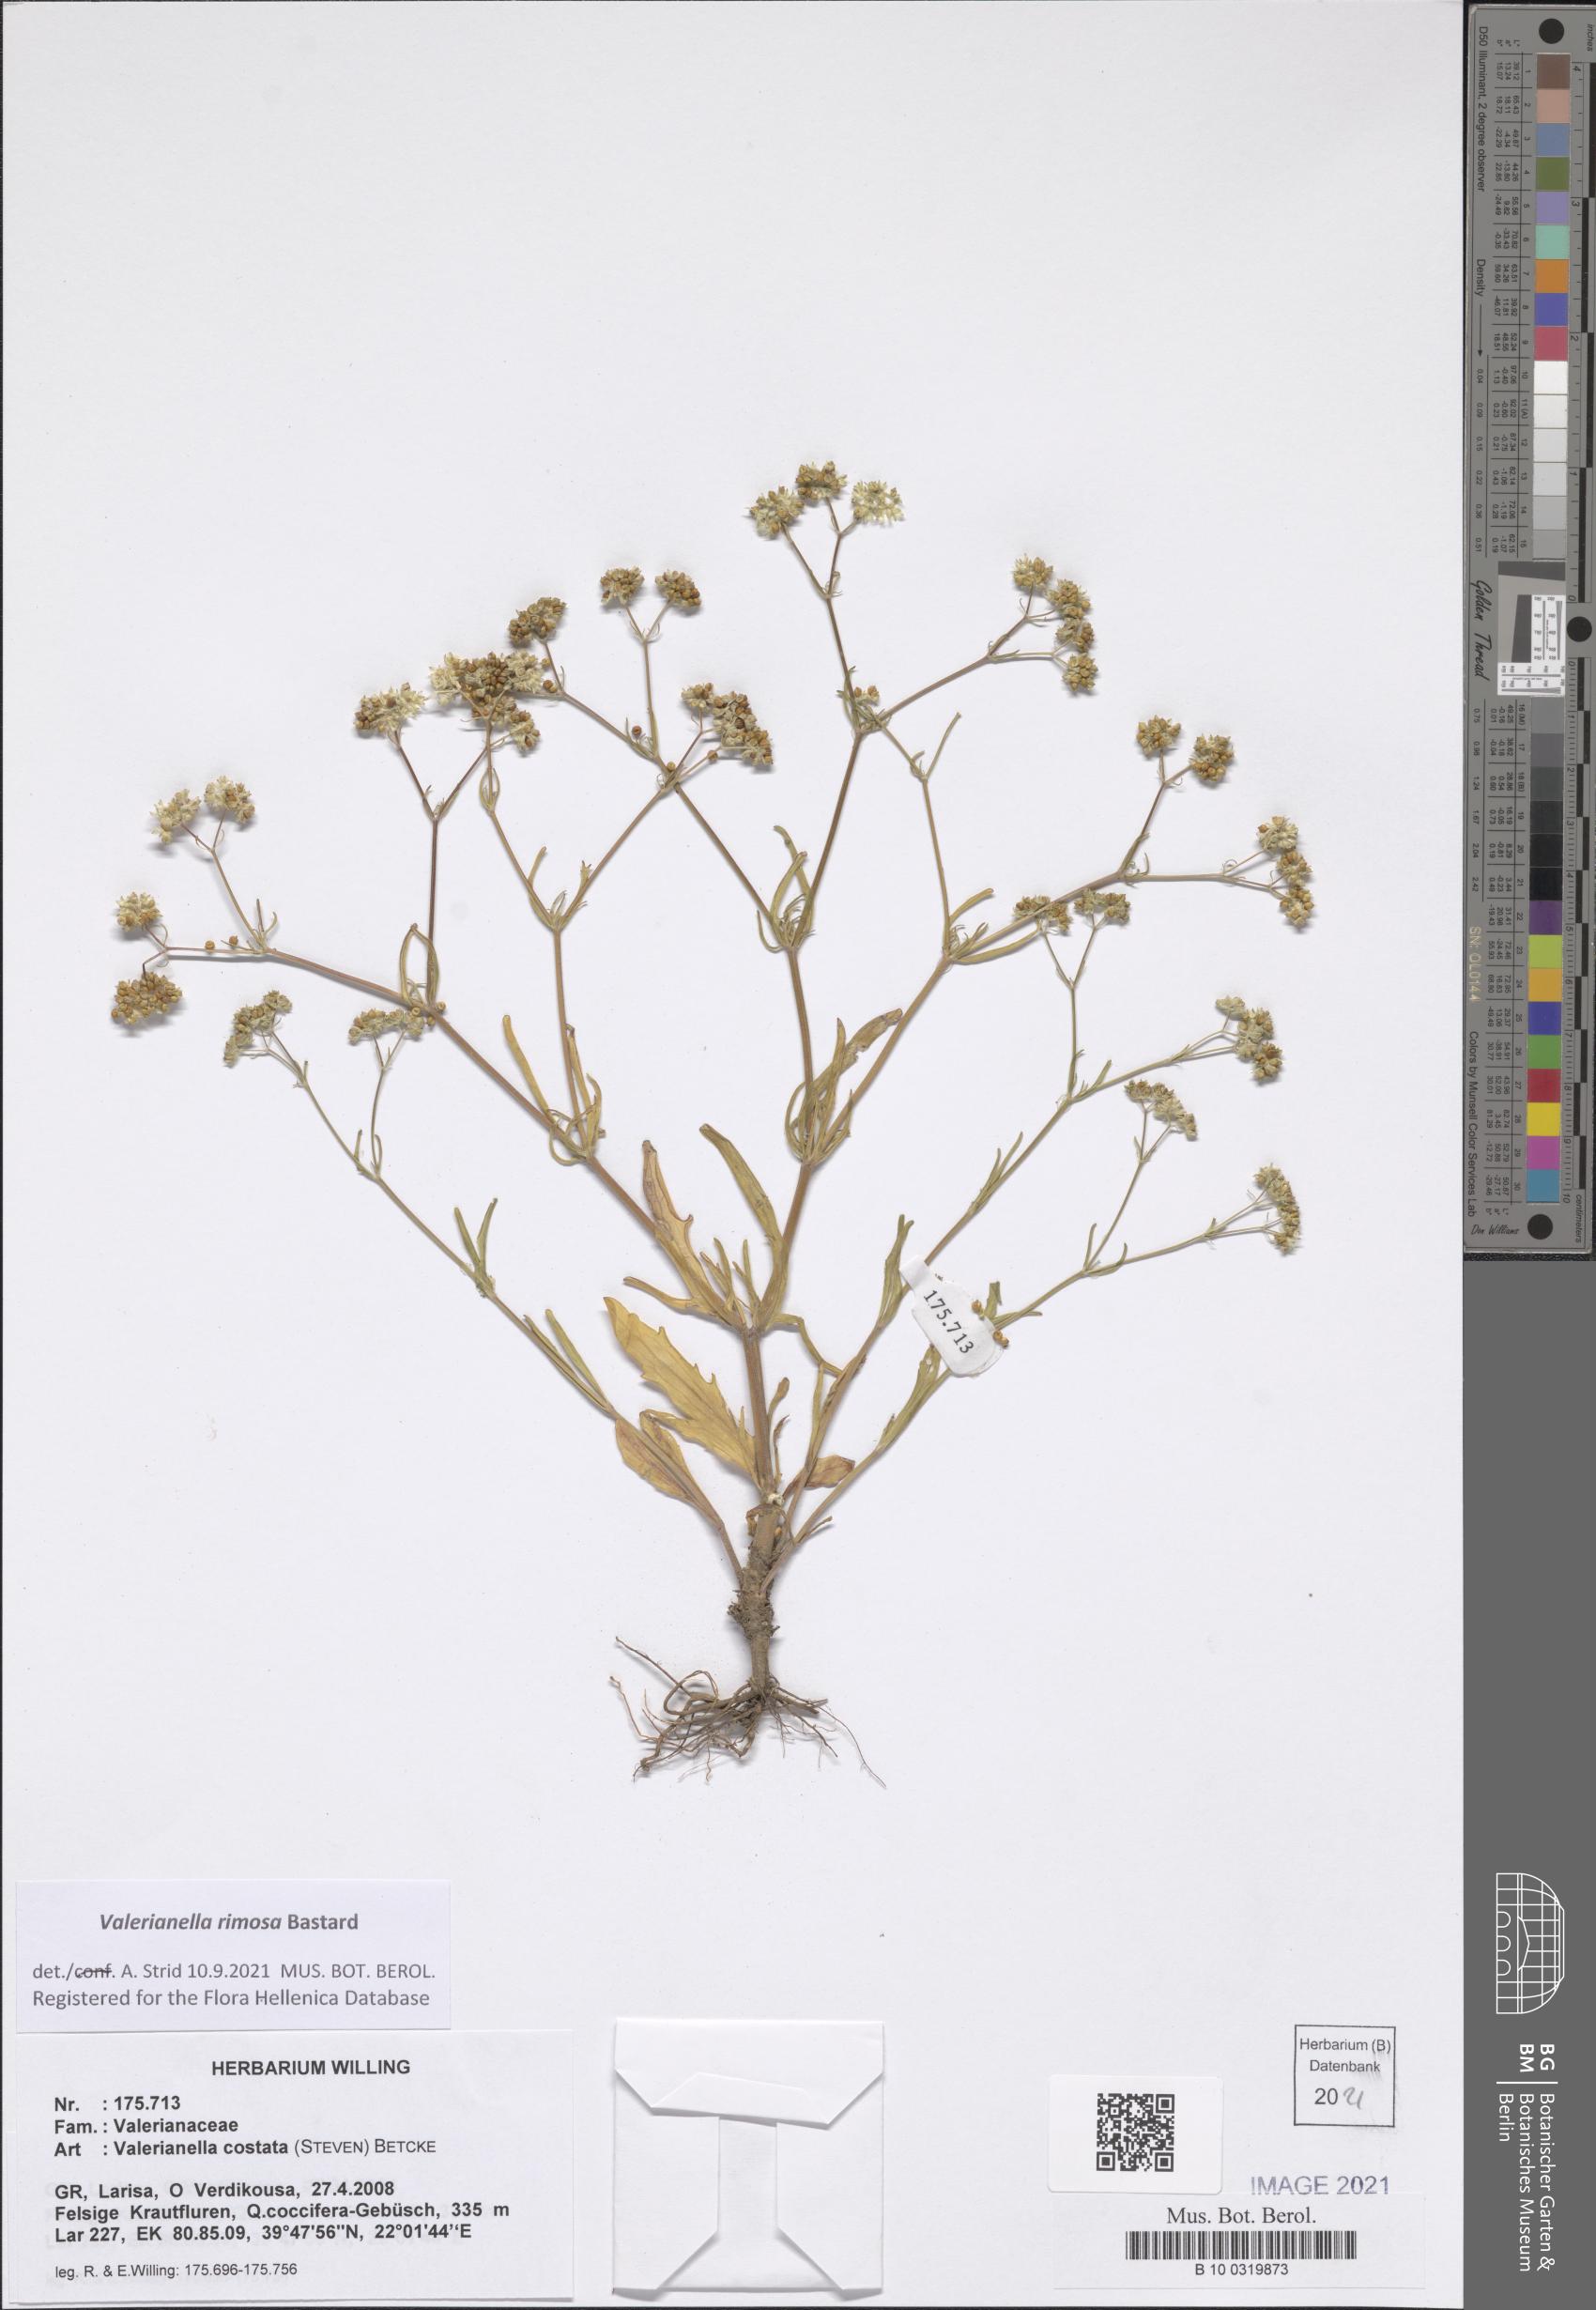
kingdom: Plantae
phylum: Tracheophyta
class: Magnoliopsida
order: Dipsacales
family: Caprifoliaceae
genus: Valerianella
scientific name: Valerianella rimosa
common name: Broad-fruited cornsalad
